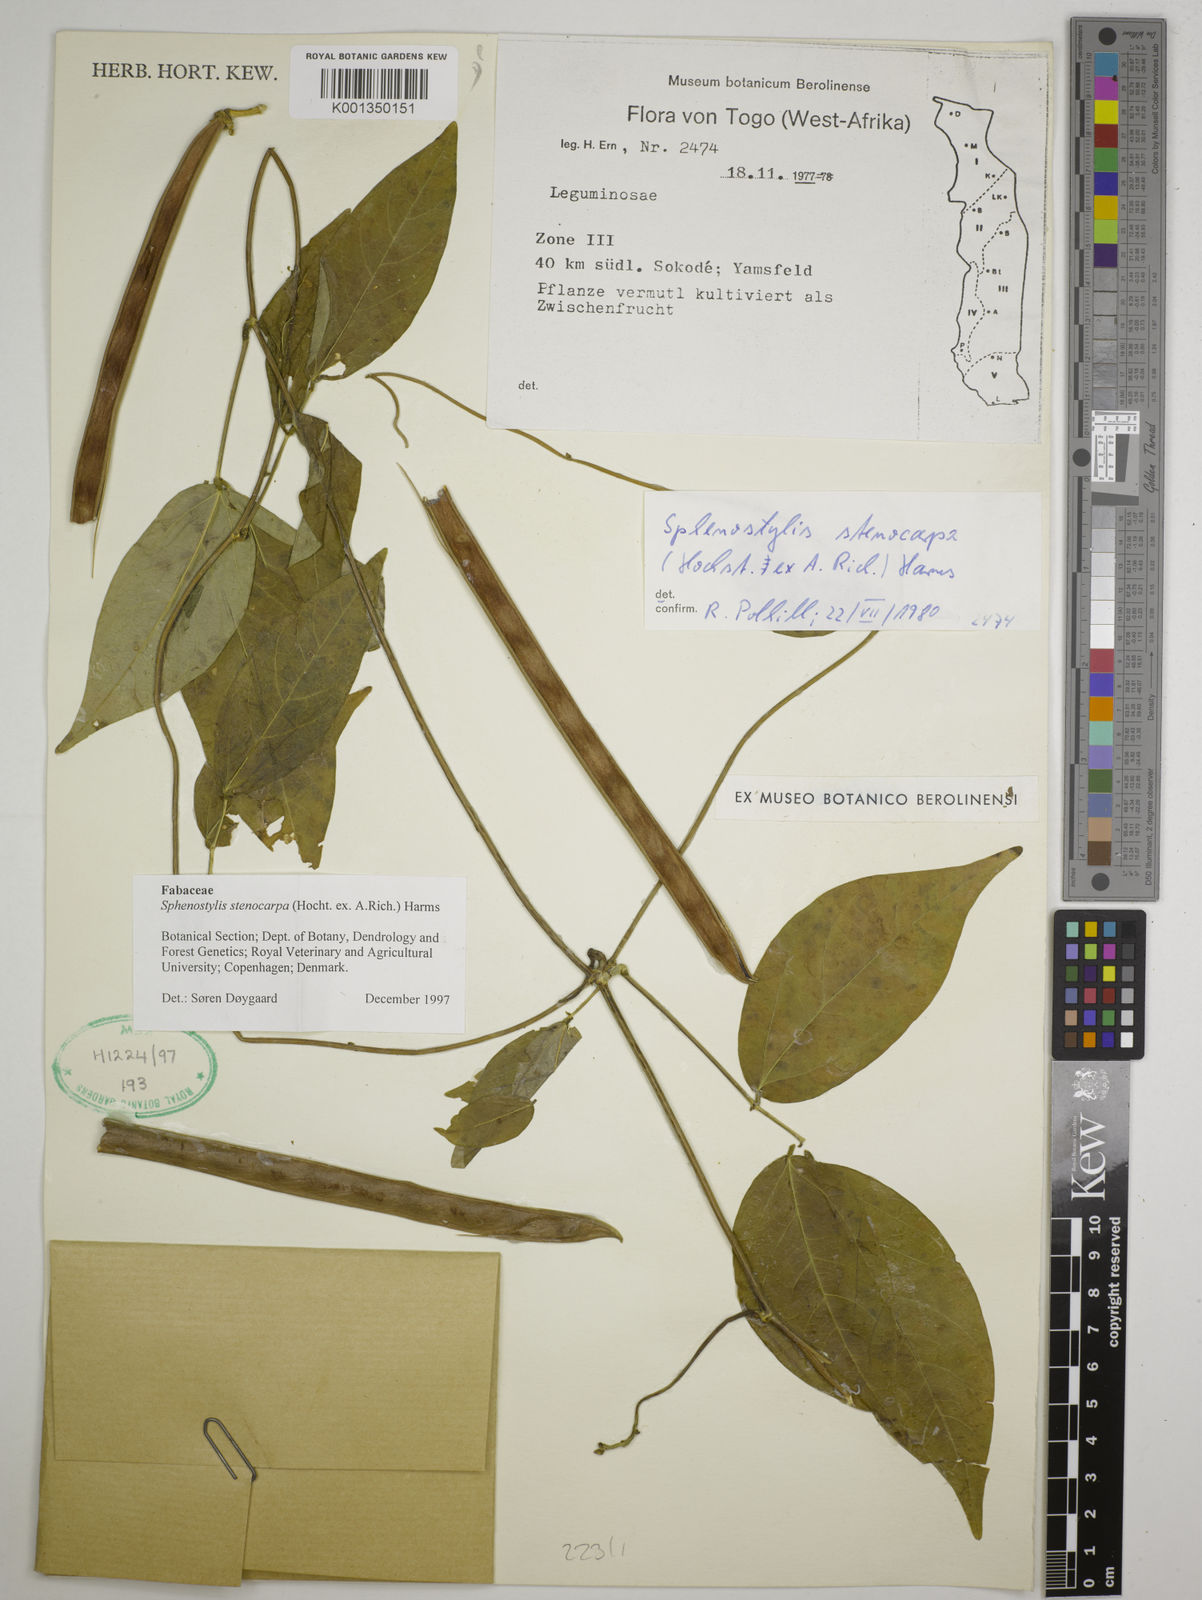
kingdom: Plantae
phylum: Tracheophyta
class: Magnoliopsida
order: Fabales
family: Fabaceae
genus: Sphenostylis
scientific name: Sphenostylis stenocarpa
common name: Yam-pea
